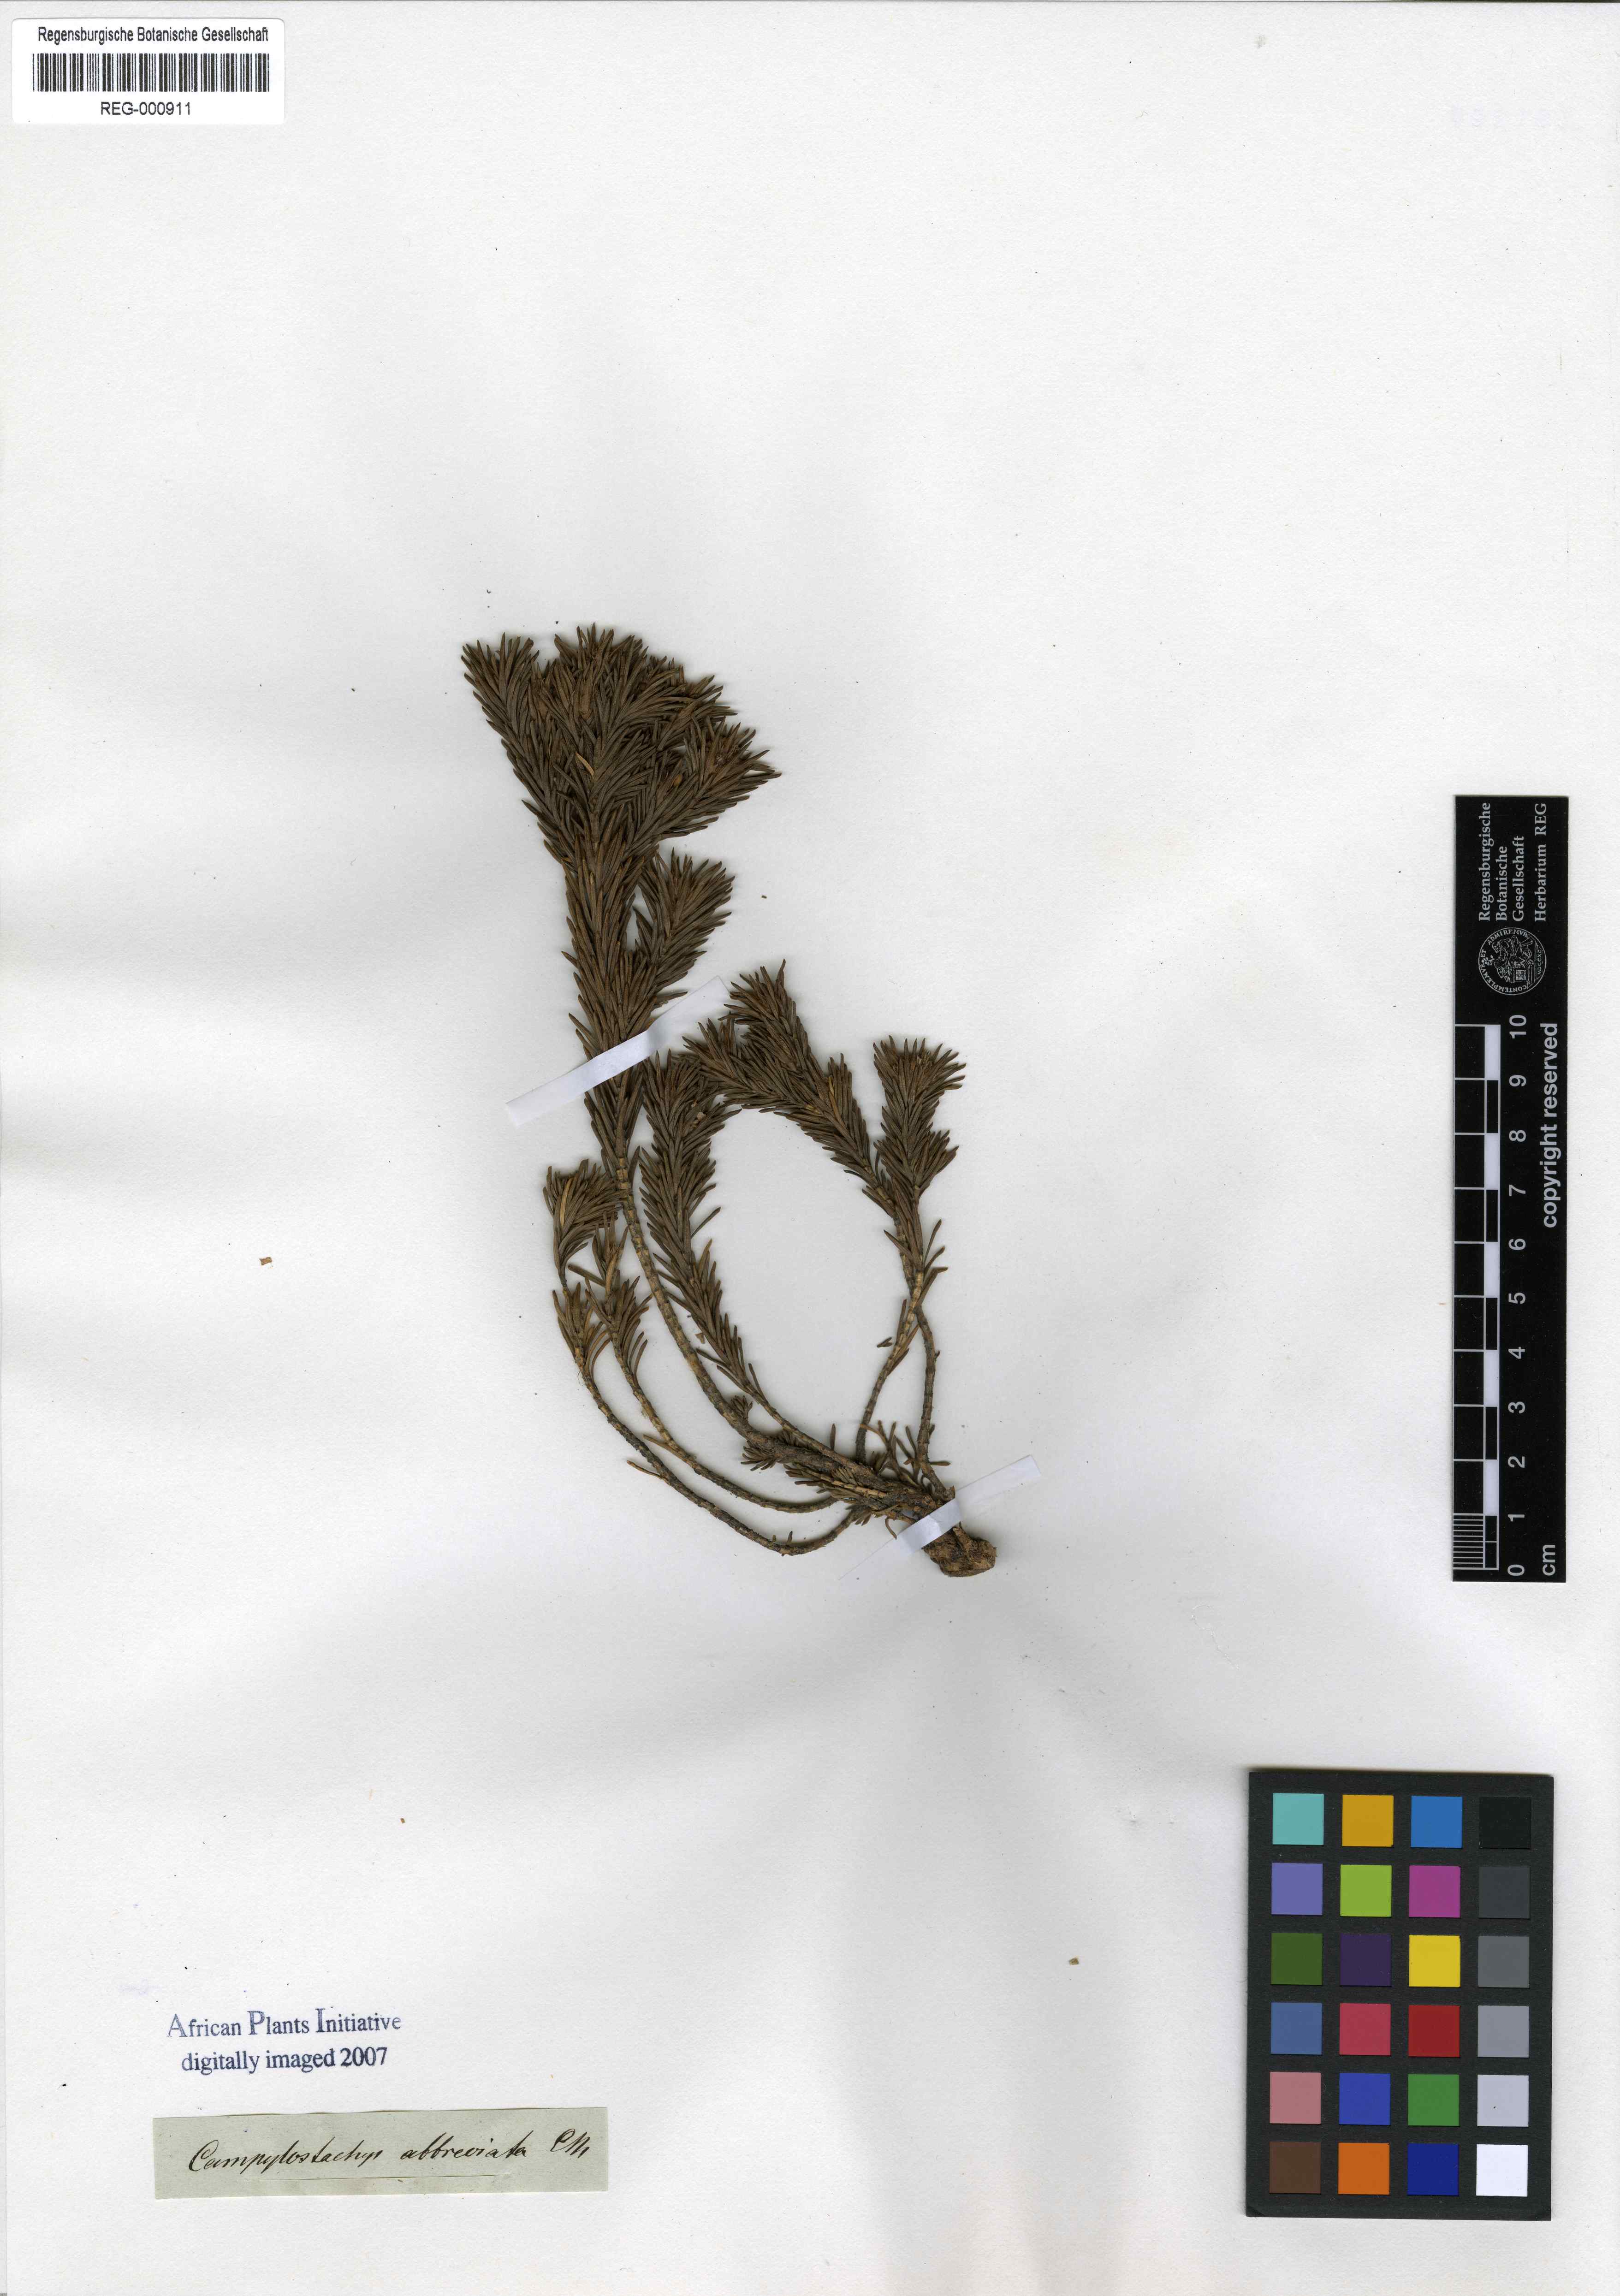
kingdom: Plantae
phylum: Tracheophyta
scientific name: Tracheophyta
